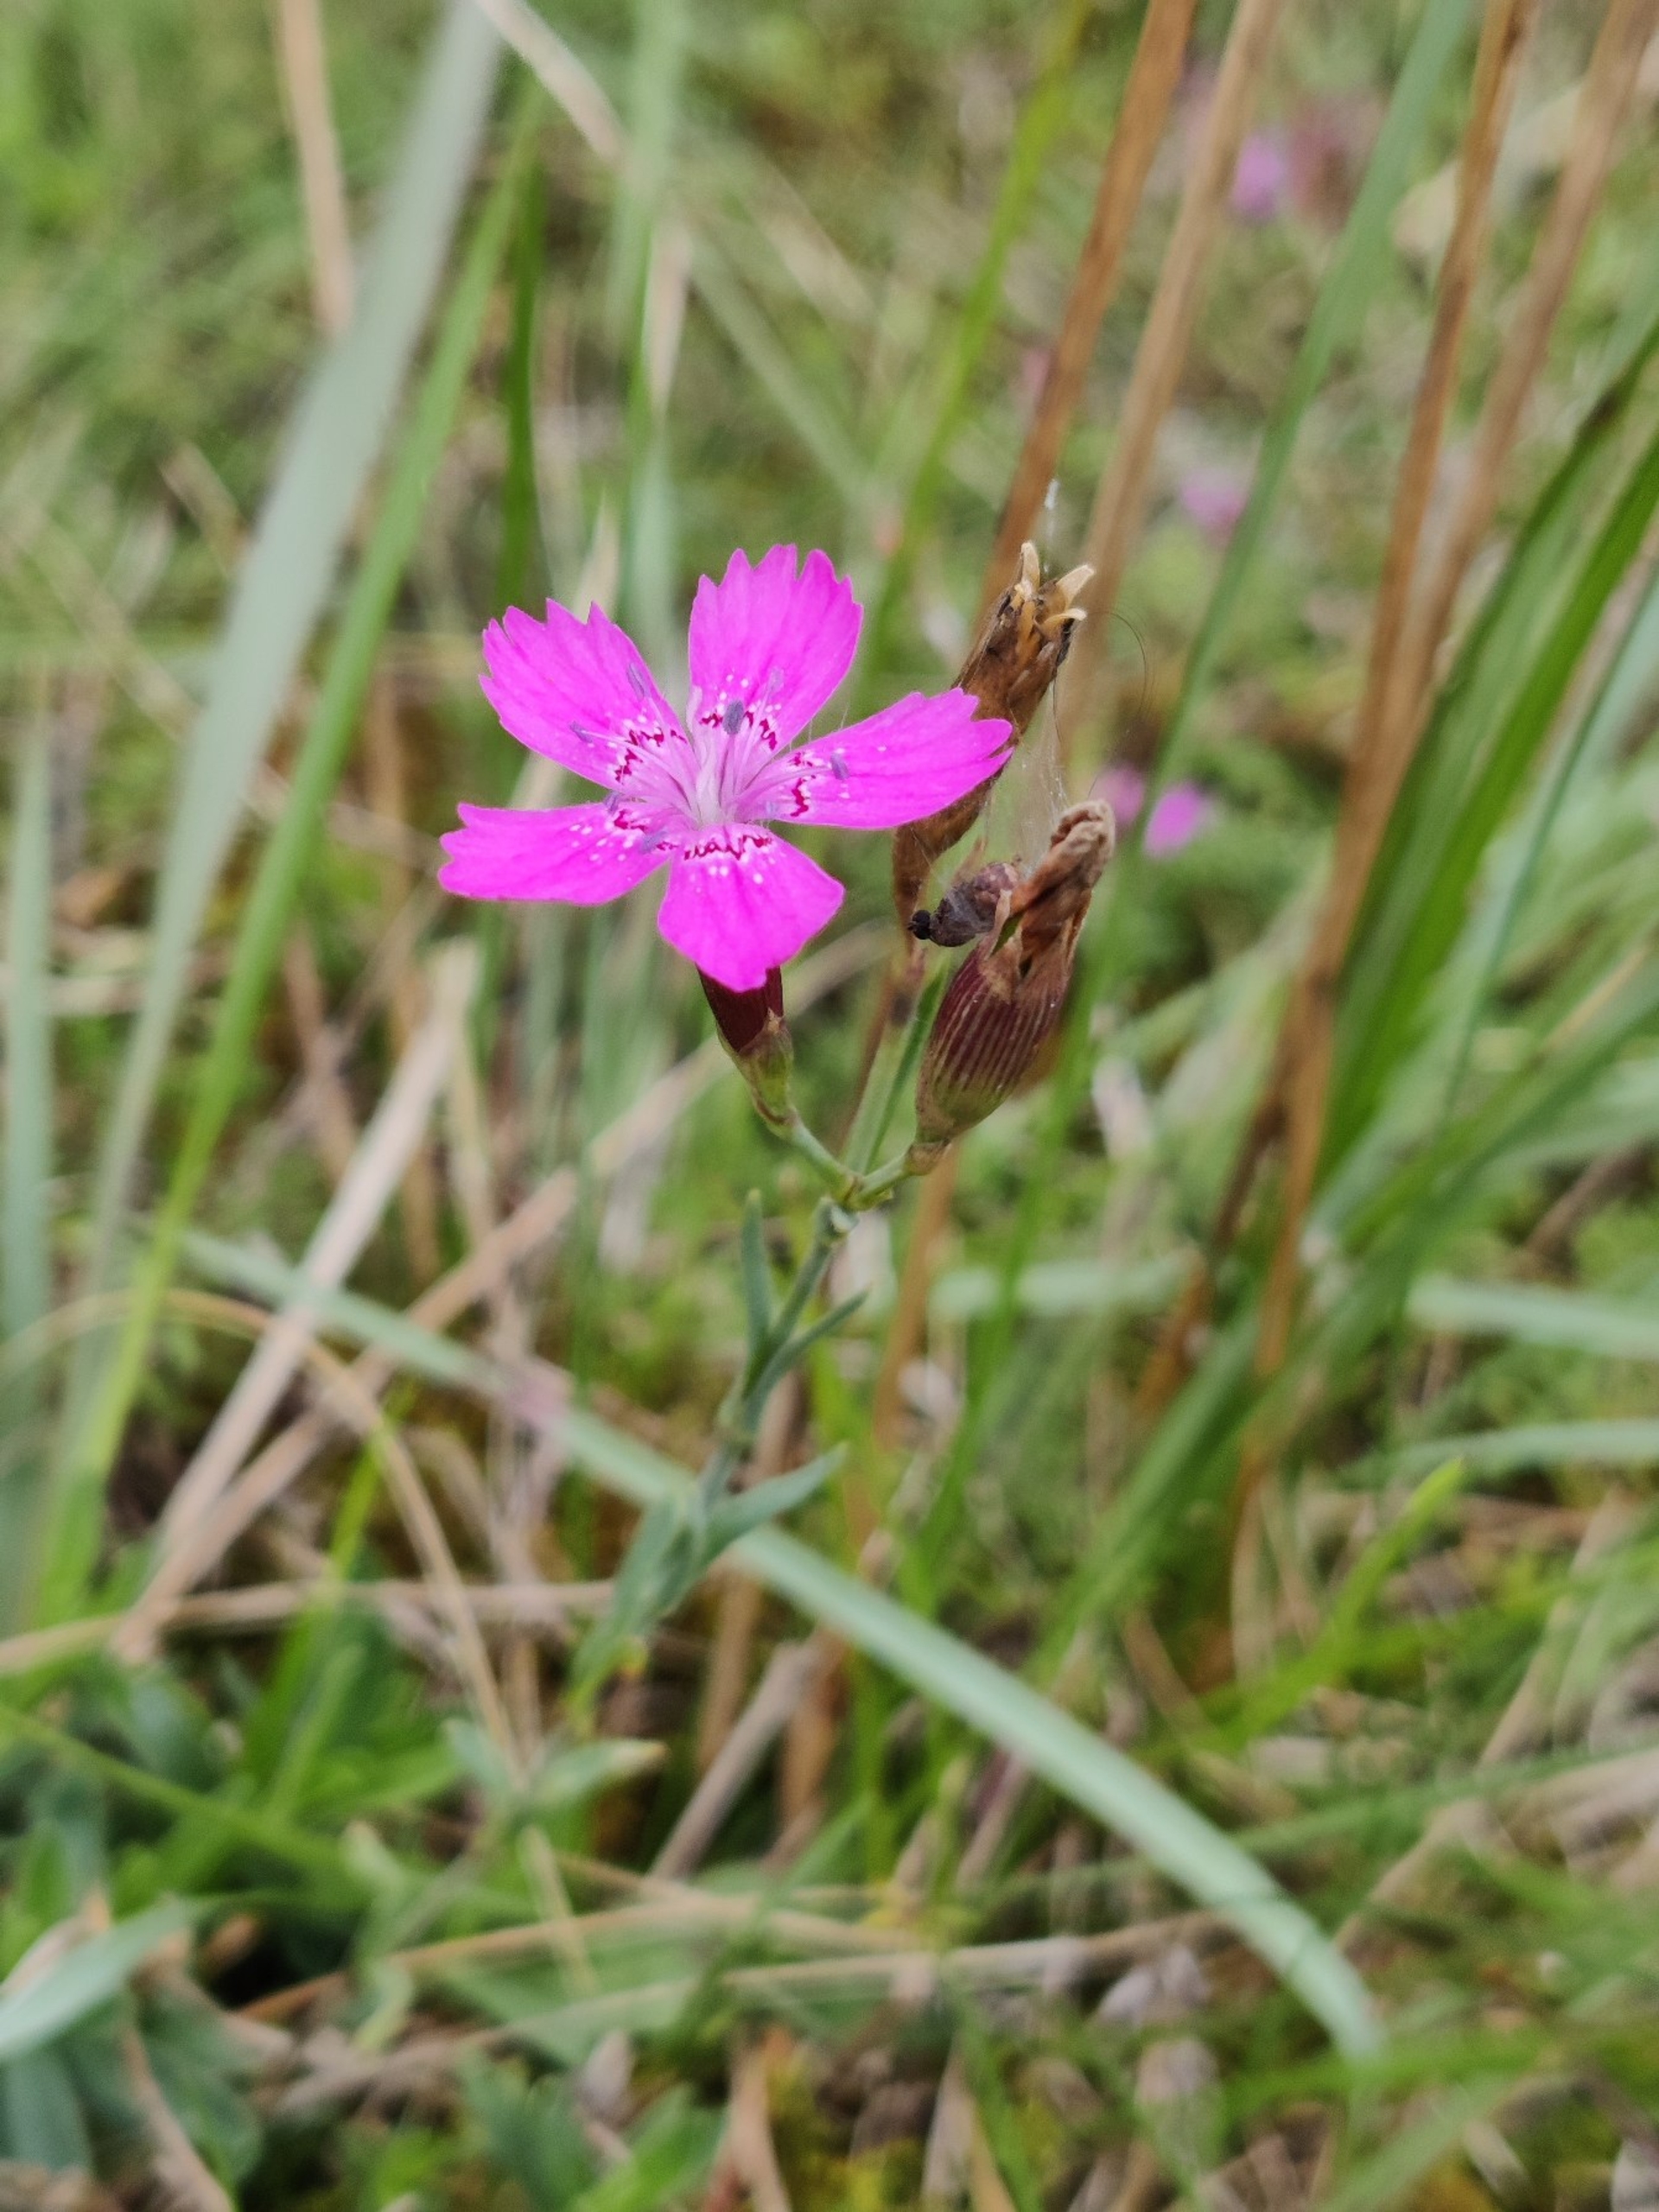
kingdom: Plantae
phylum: Tracheophyta
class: Magnoliopsida
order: Caryophyllales
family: Caryophyllaceae
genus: Dianthus
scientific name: Dianthus deltoides
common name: Bakke-nellike
